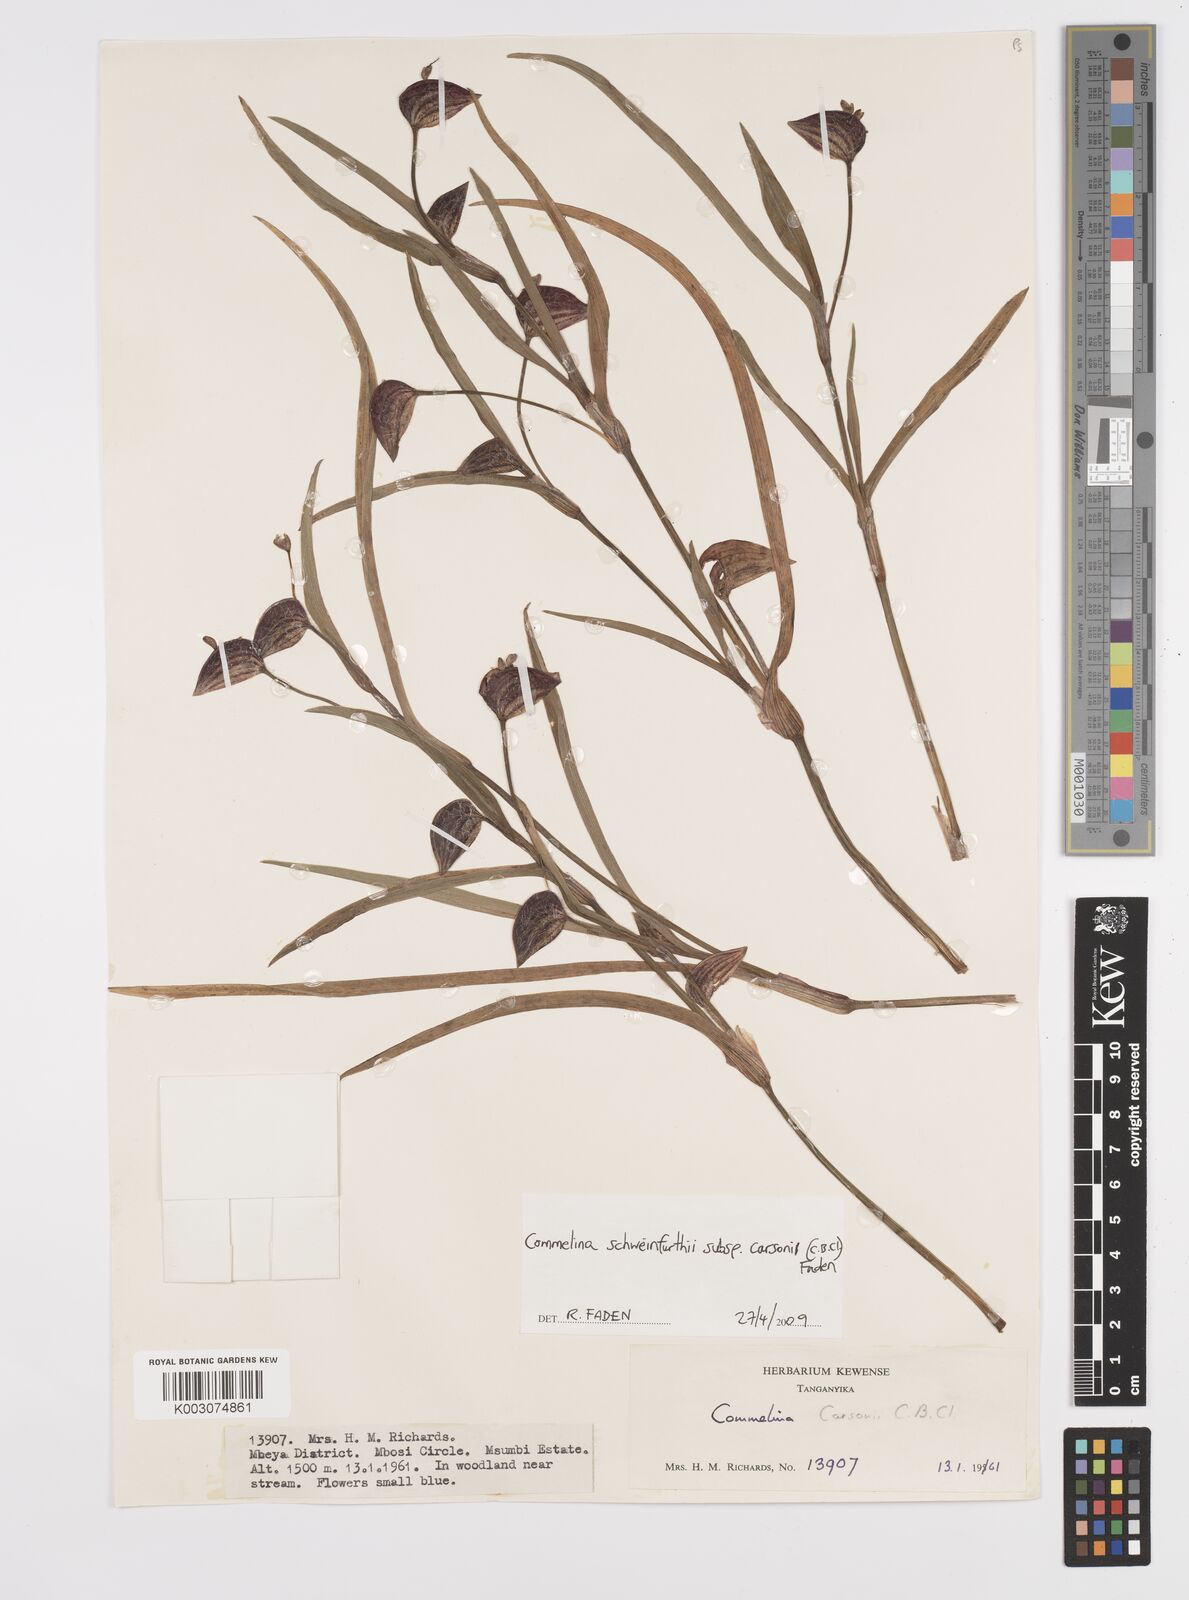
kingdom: Plantae
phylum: Tracheophyta
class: Liliopsida
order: Commelinales
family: Commelinaceae
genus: Commelina
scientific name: Commelina schweinfurthii
